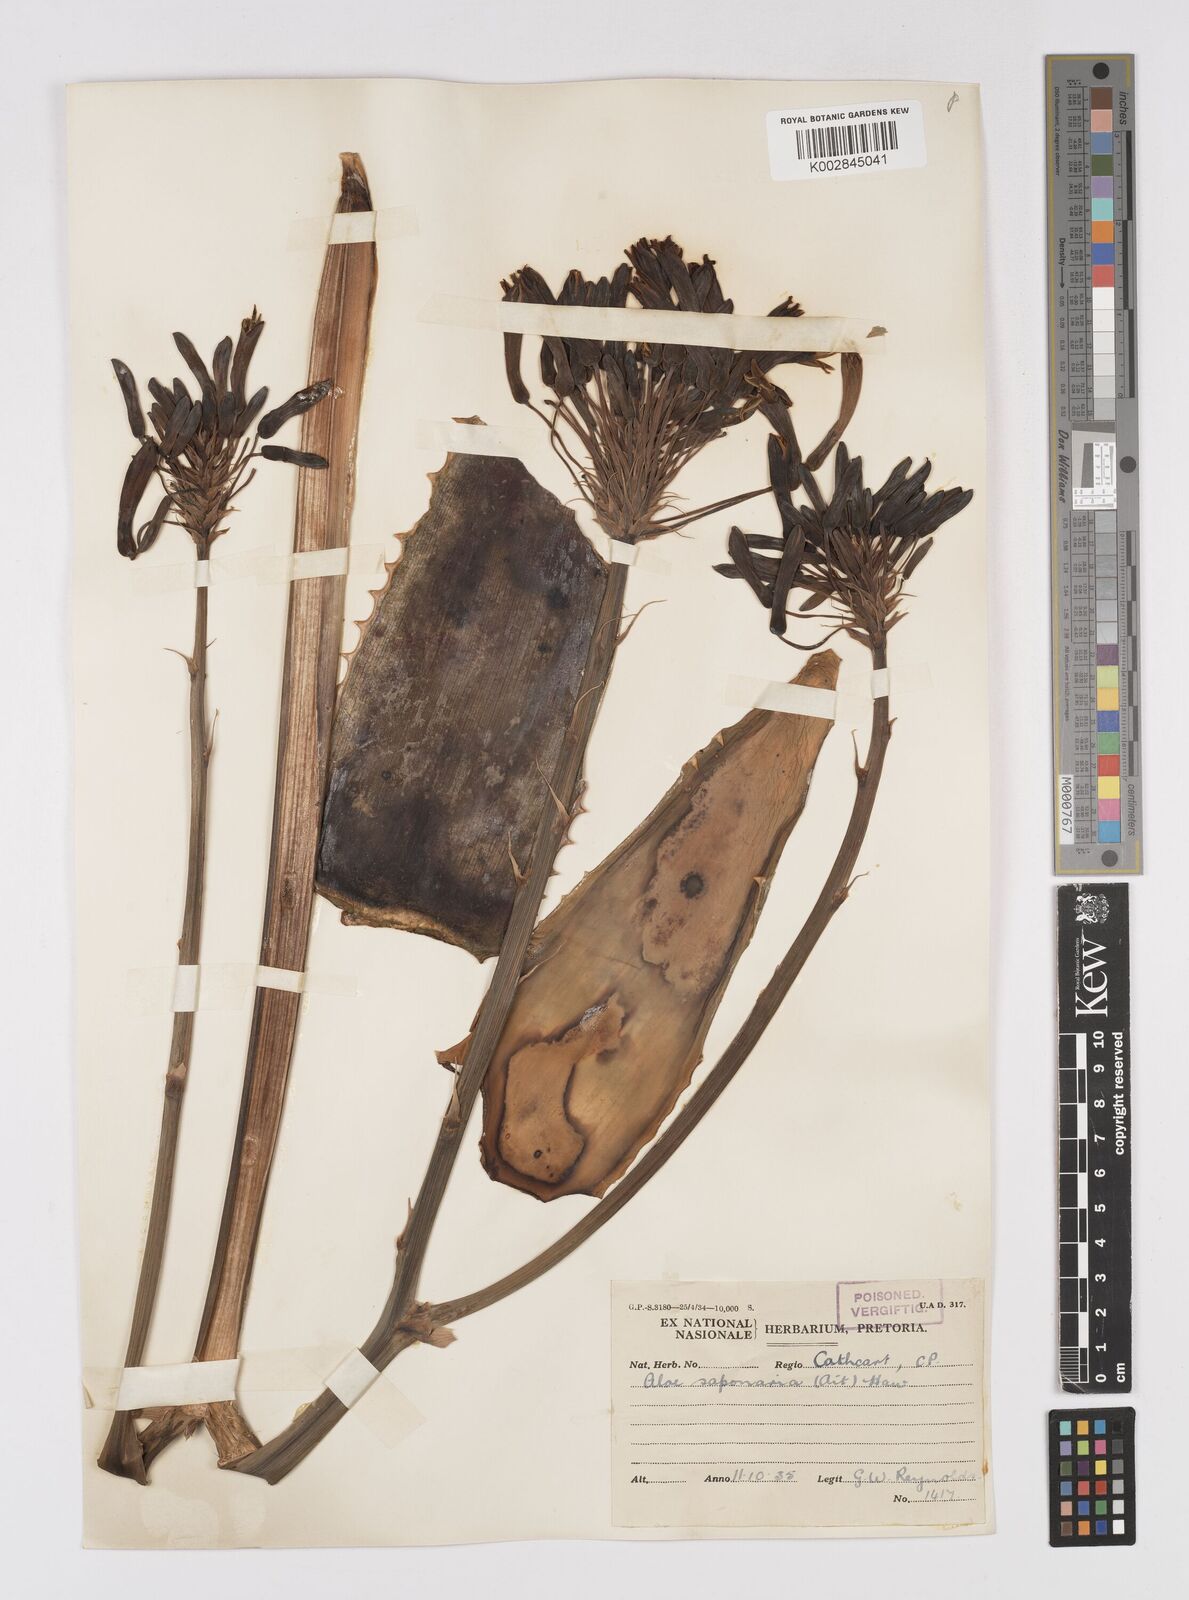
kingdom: Plantae
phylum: Tracheophyta
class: Liliopsida
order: Asparagales
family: Asphodelaceae
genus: Aloe
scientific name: Aloe microstigma
